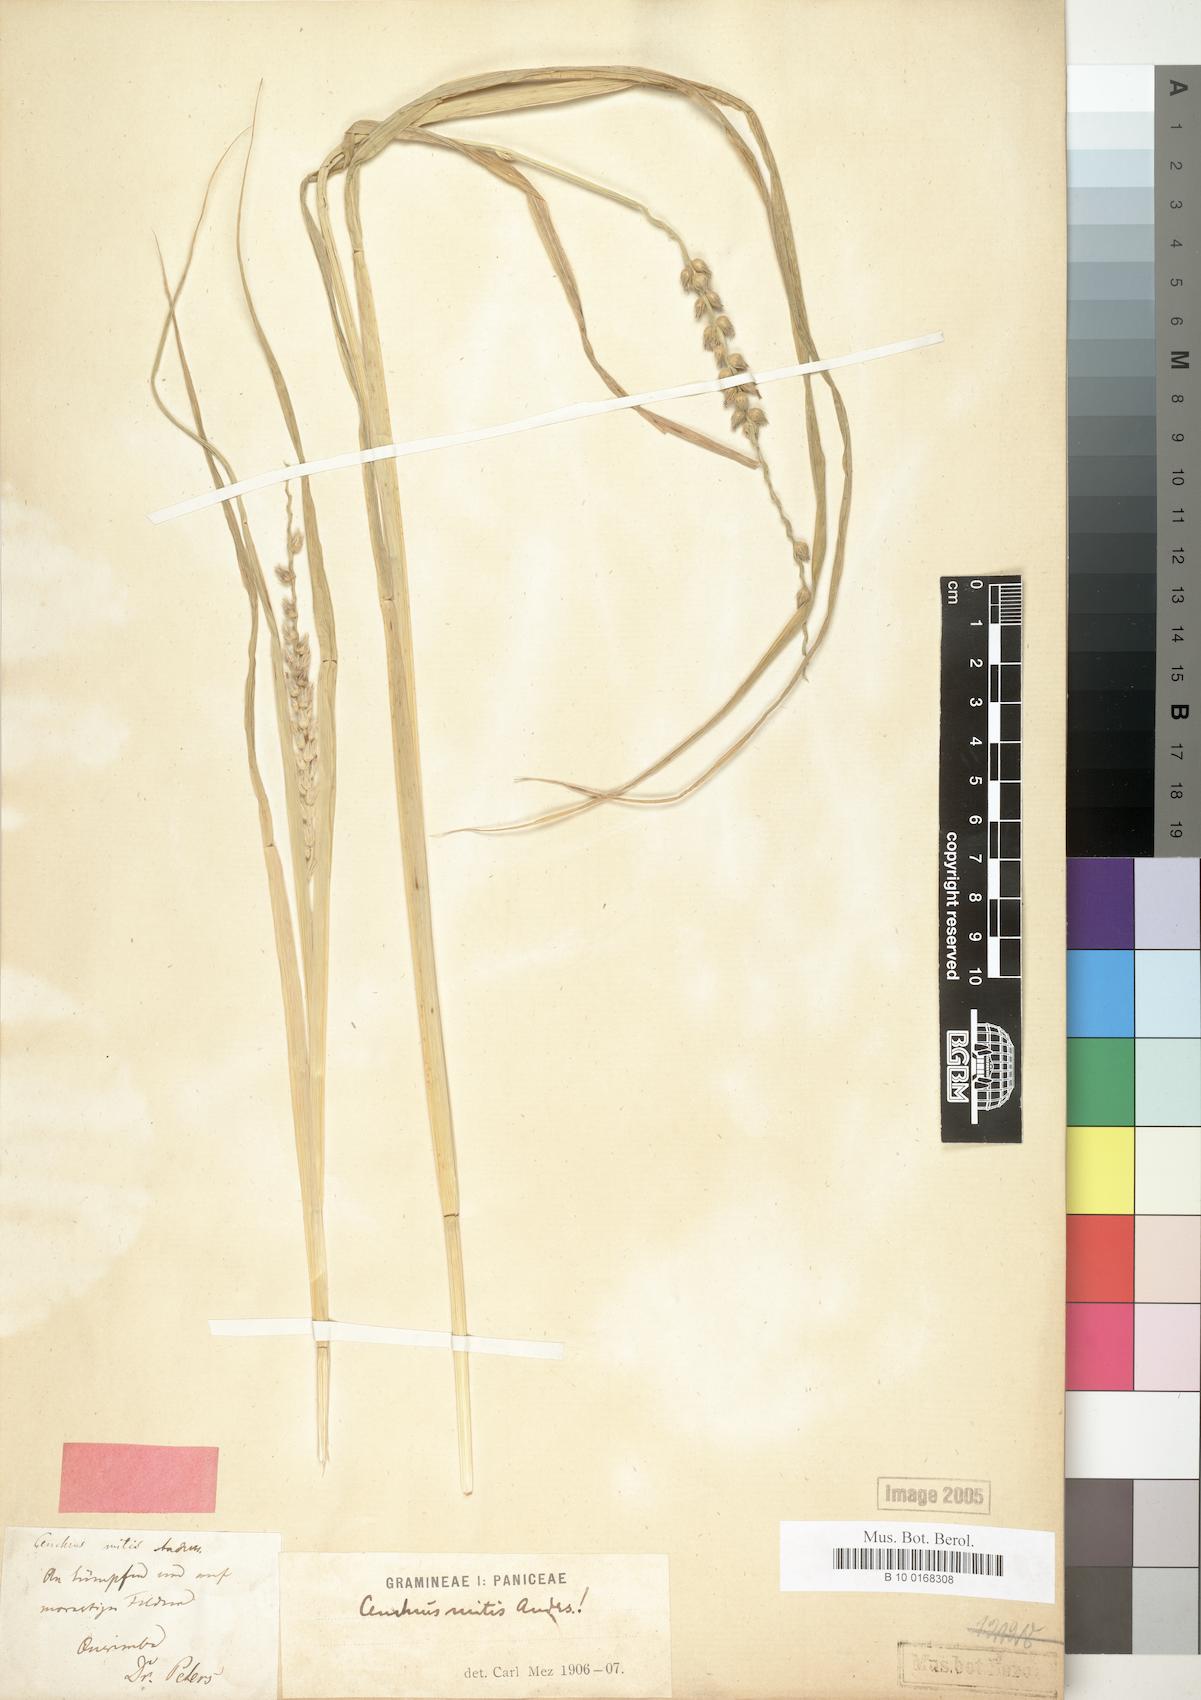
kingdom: Plantae
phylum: Tracheophyta
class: Liliopsida
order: Poales
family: Poaceae
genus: Cenchrus
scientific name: Cenchrus mitis
